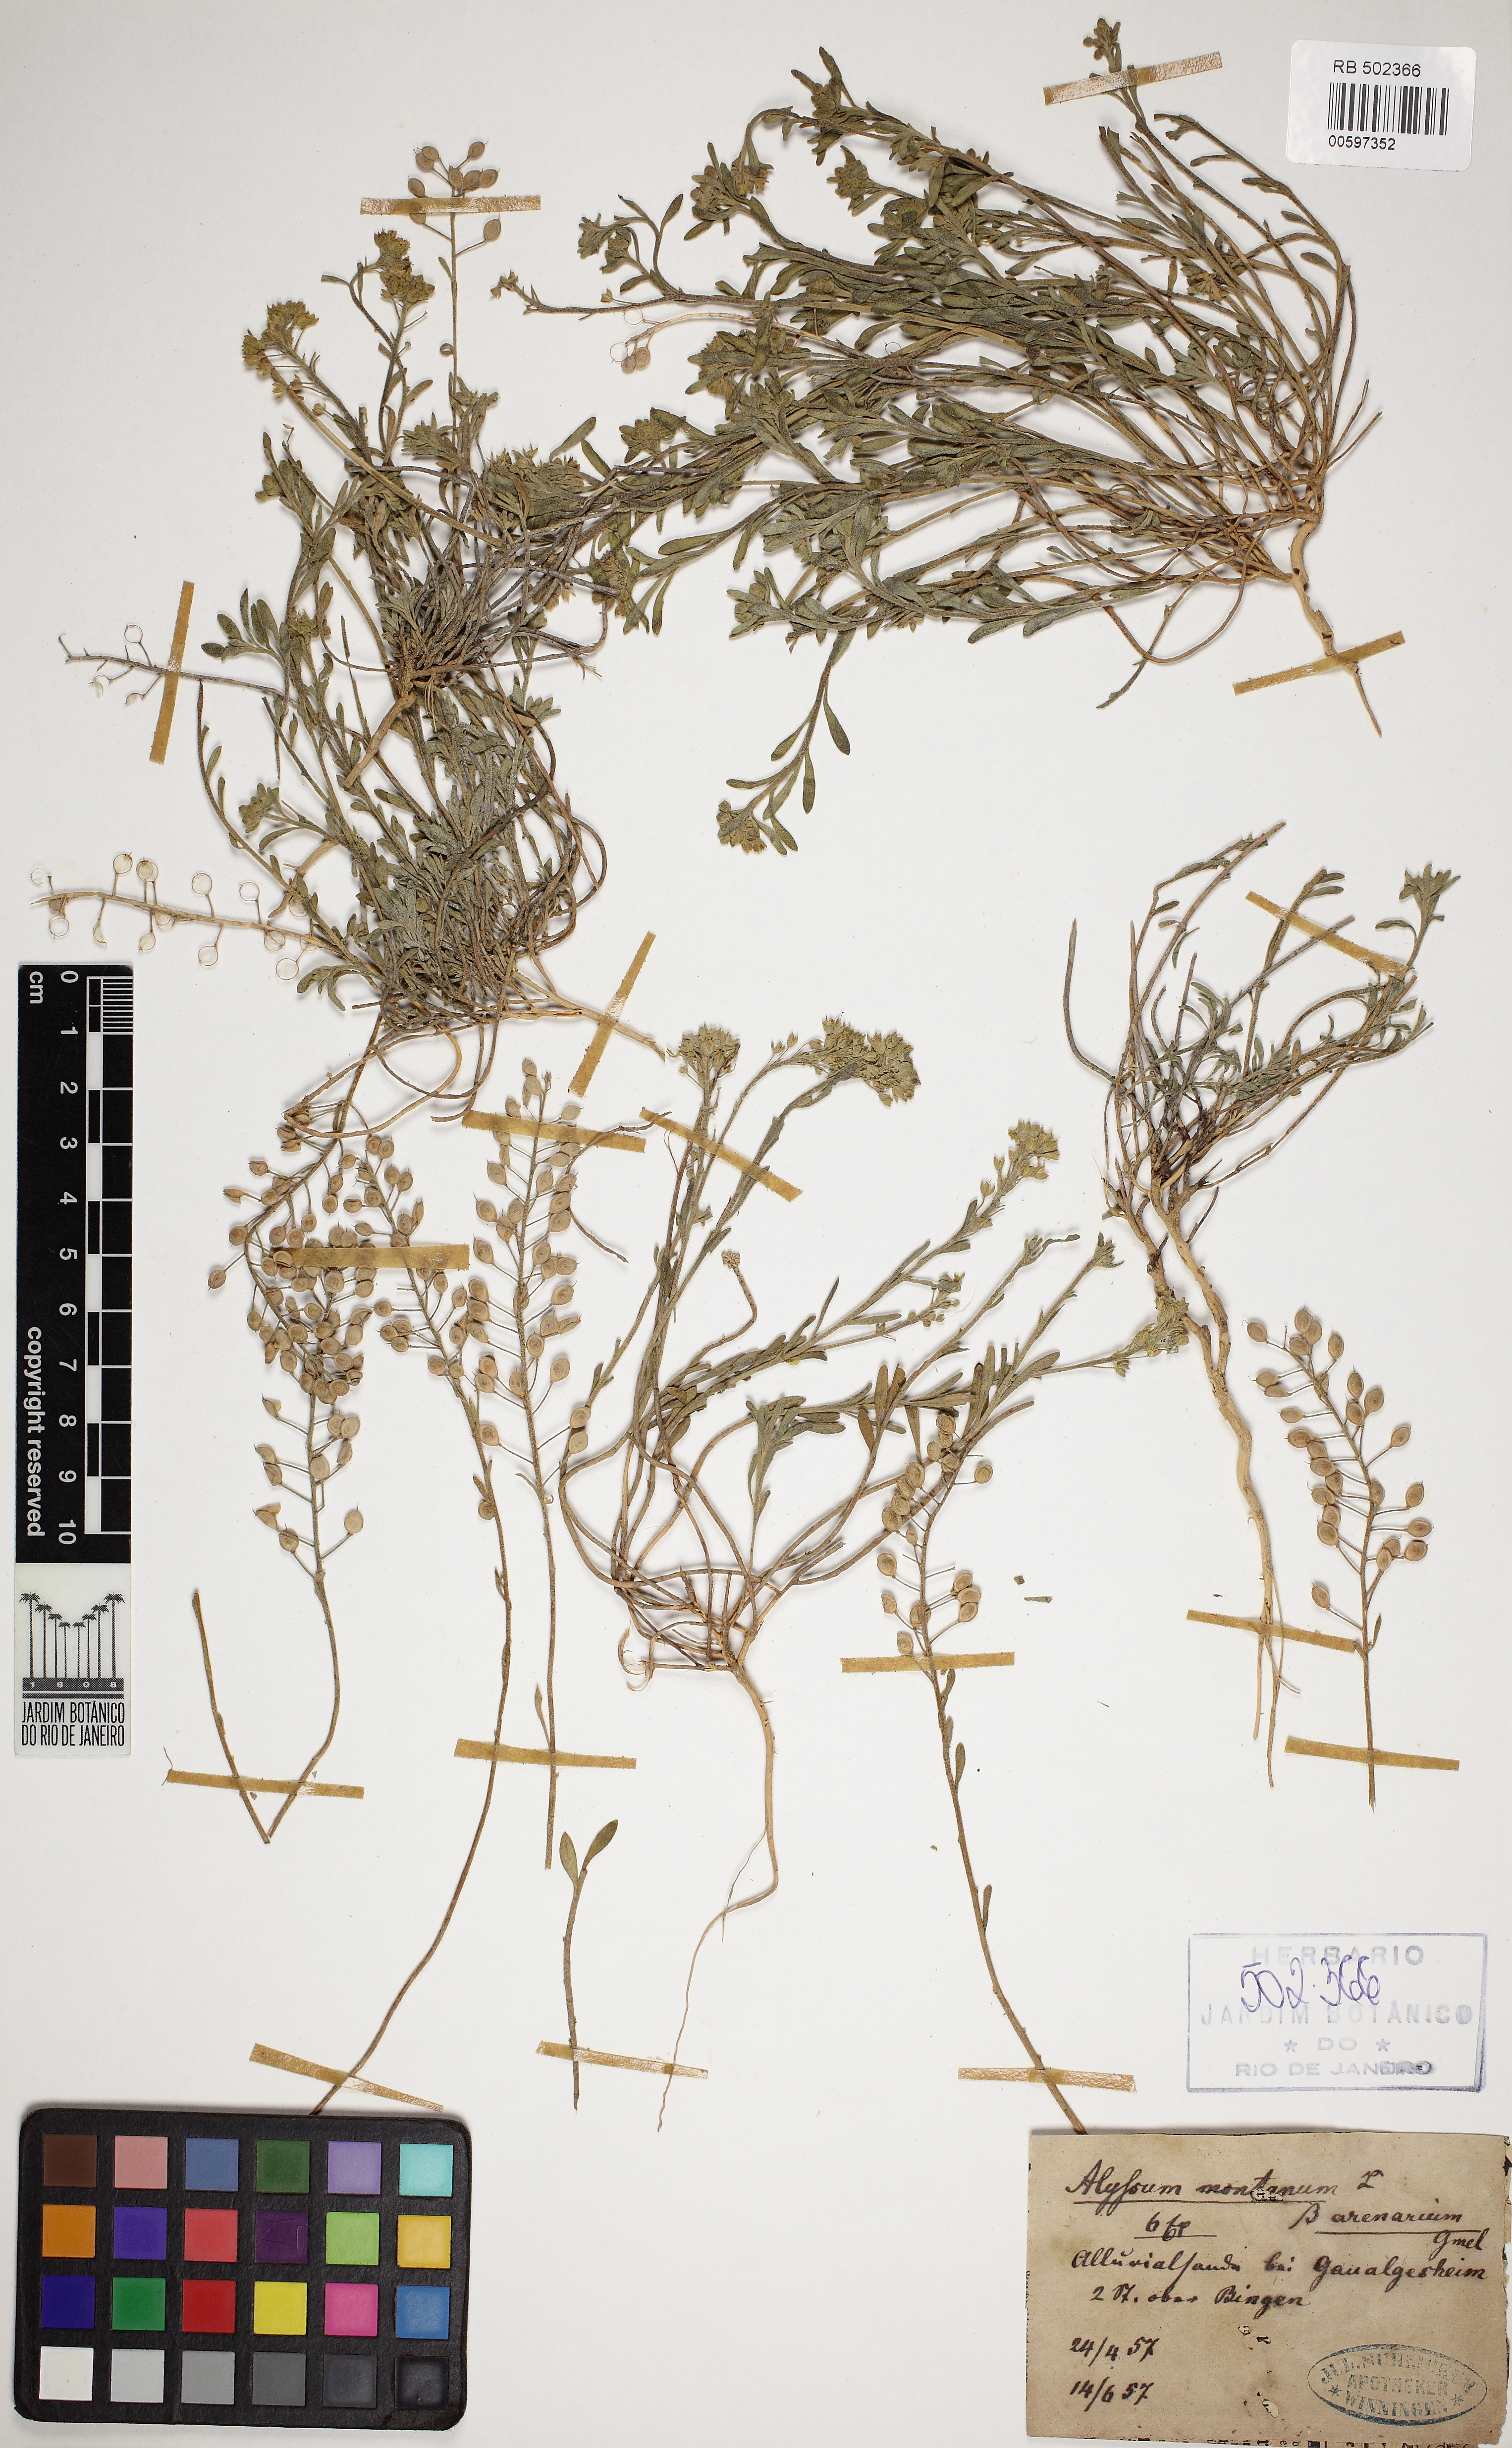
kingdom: Plantae
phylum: Tracheophyta
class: Magnoliopsida
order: Brassicales
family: Brassicaceae
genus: Alyssum
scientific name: Alyssum montanum
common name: Mountain alison
